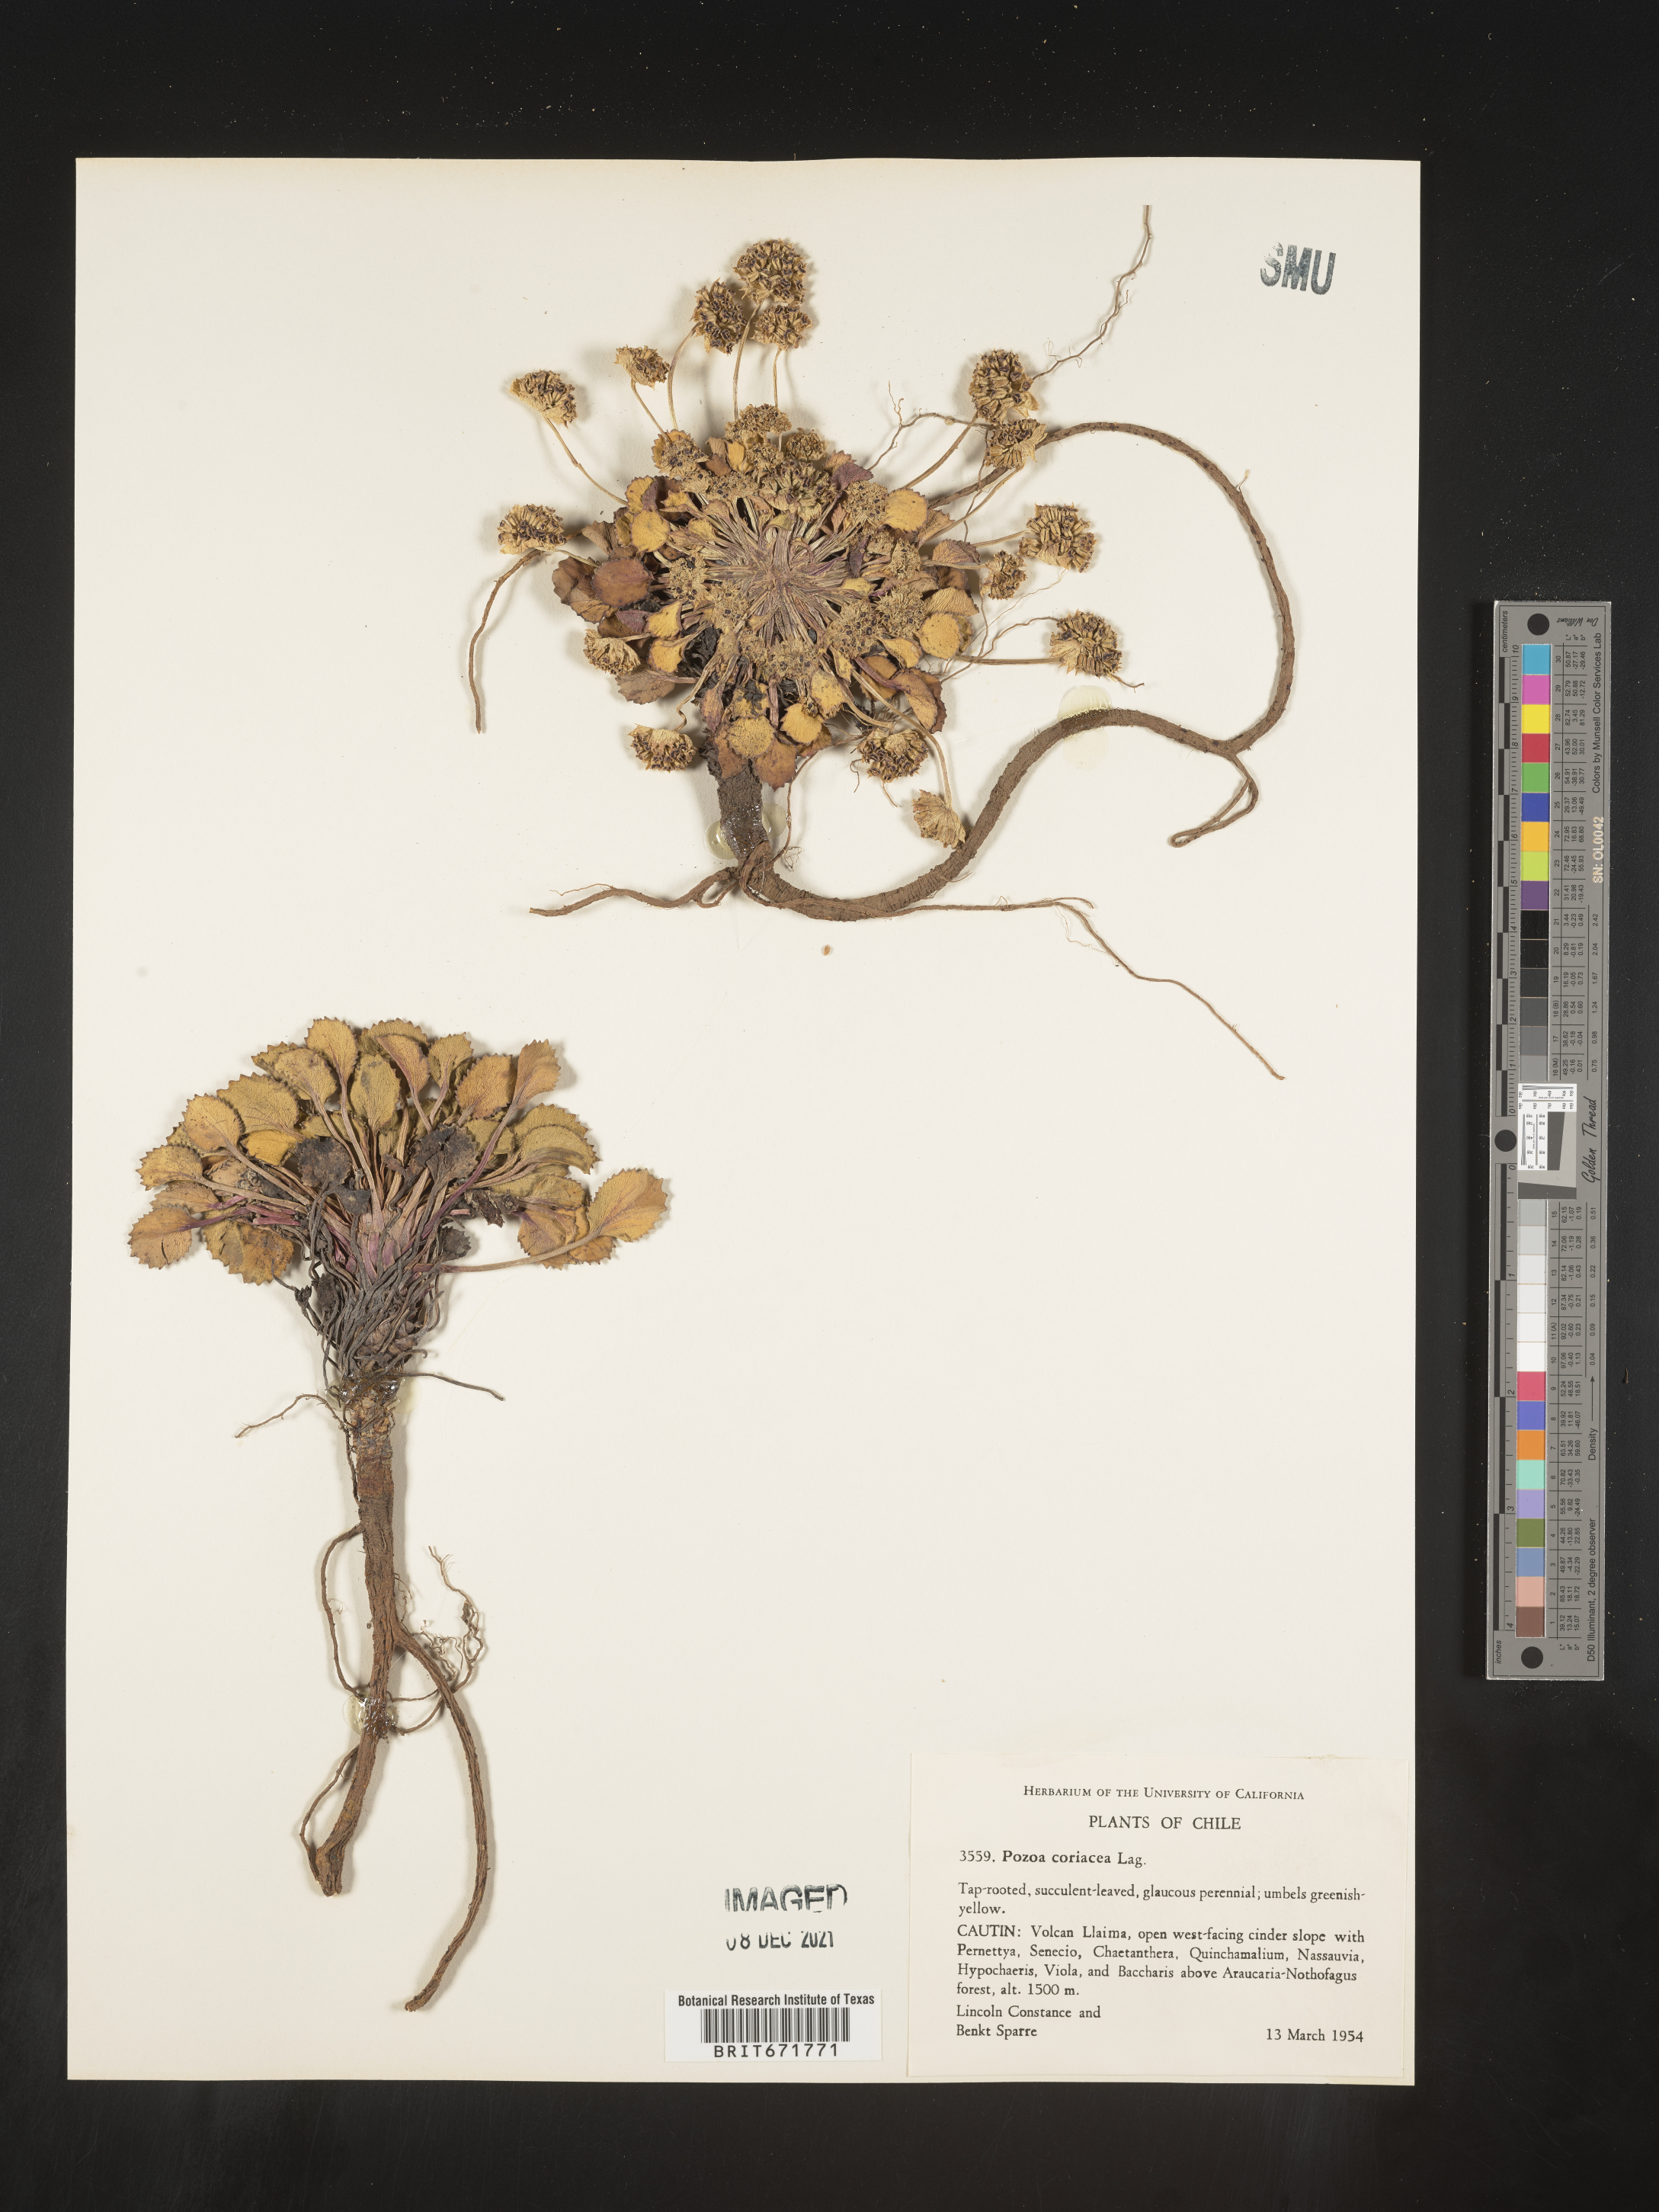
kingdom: Plantae
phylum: Tracheophyta
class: Magnoliopsida
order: Apiales
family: Apiaceae
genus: Pozoa
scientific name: Pozoa coriacea
